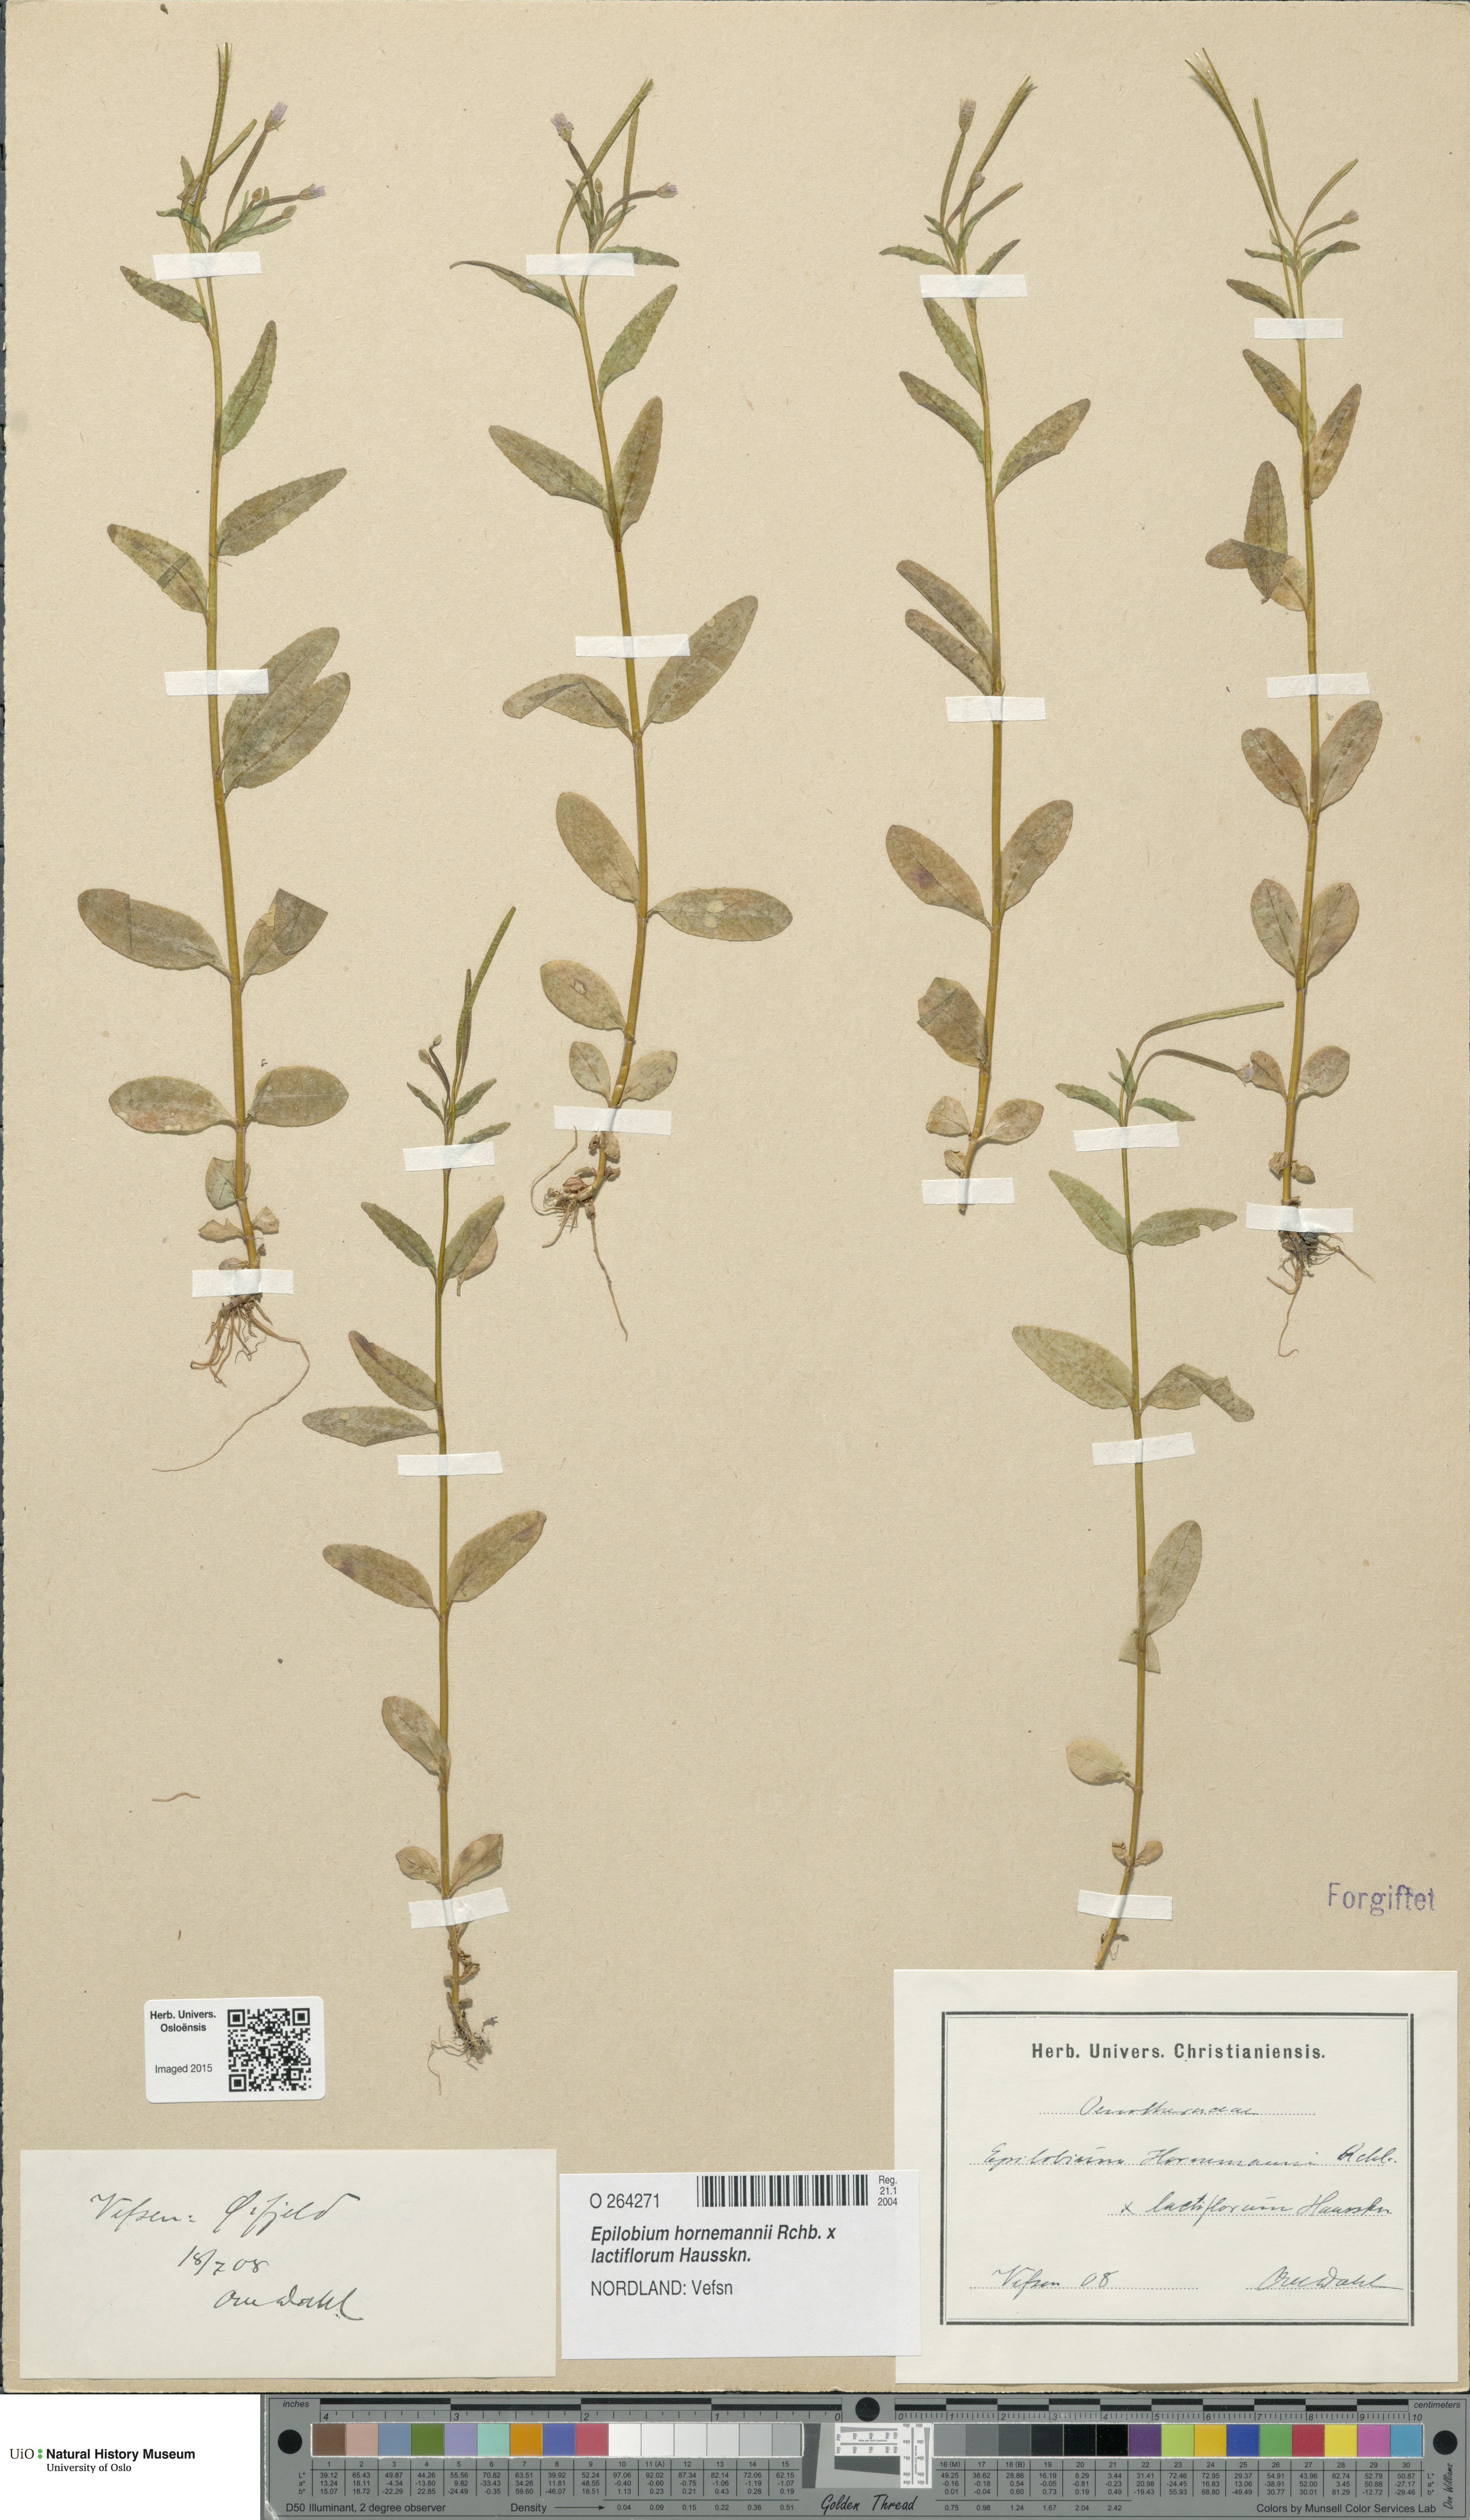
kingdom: Plantae
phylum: Tracheophyta
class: Magnoliopsida
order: Myrtales
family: Onagraceae
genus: Epilobium
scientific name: Epilobium
